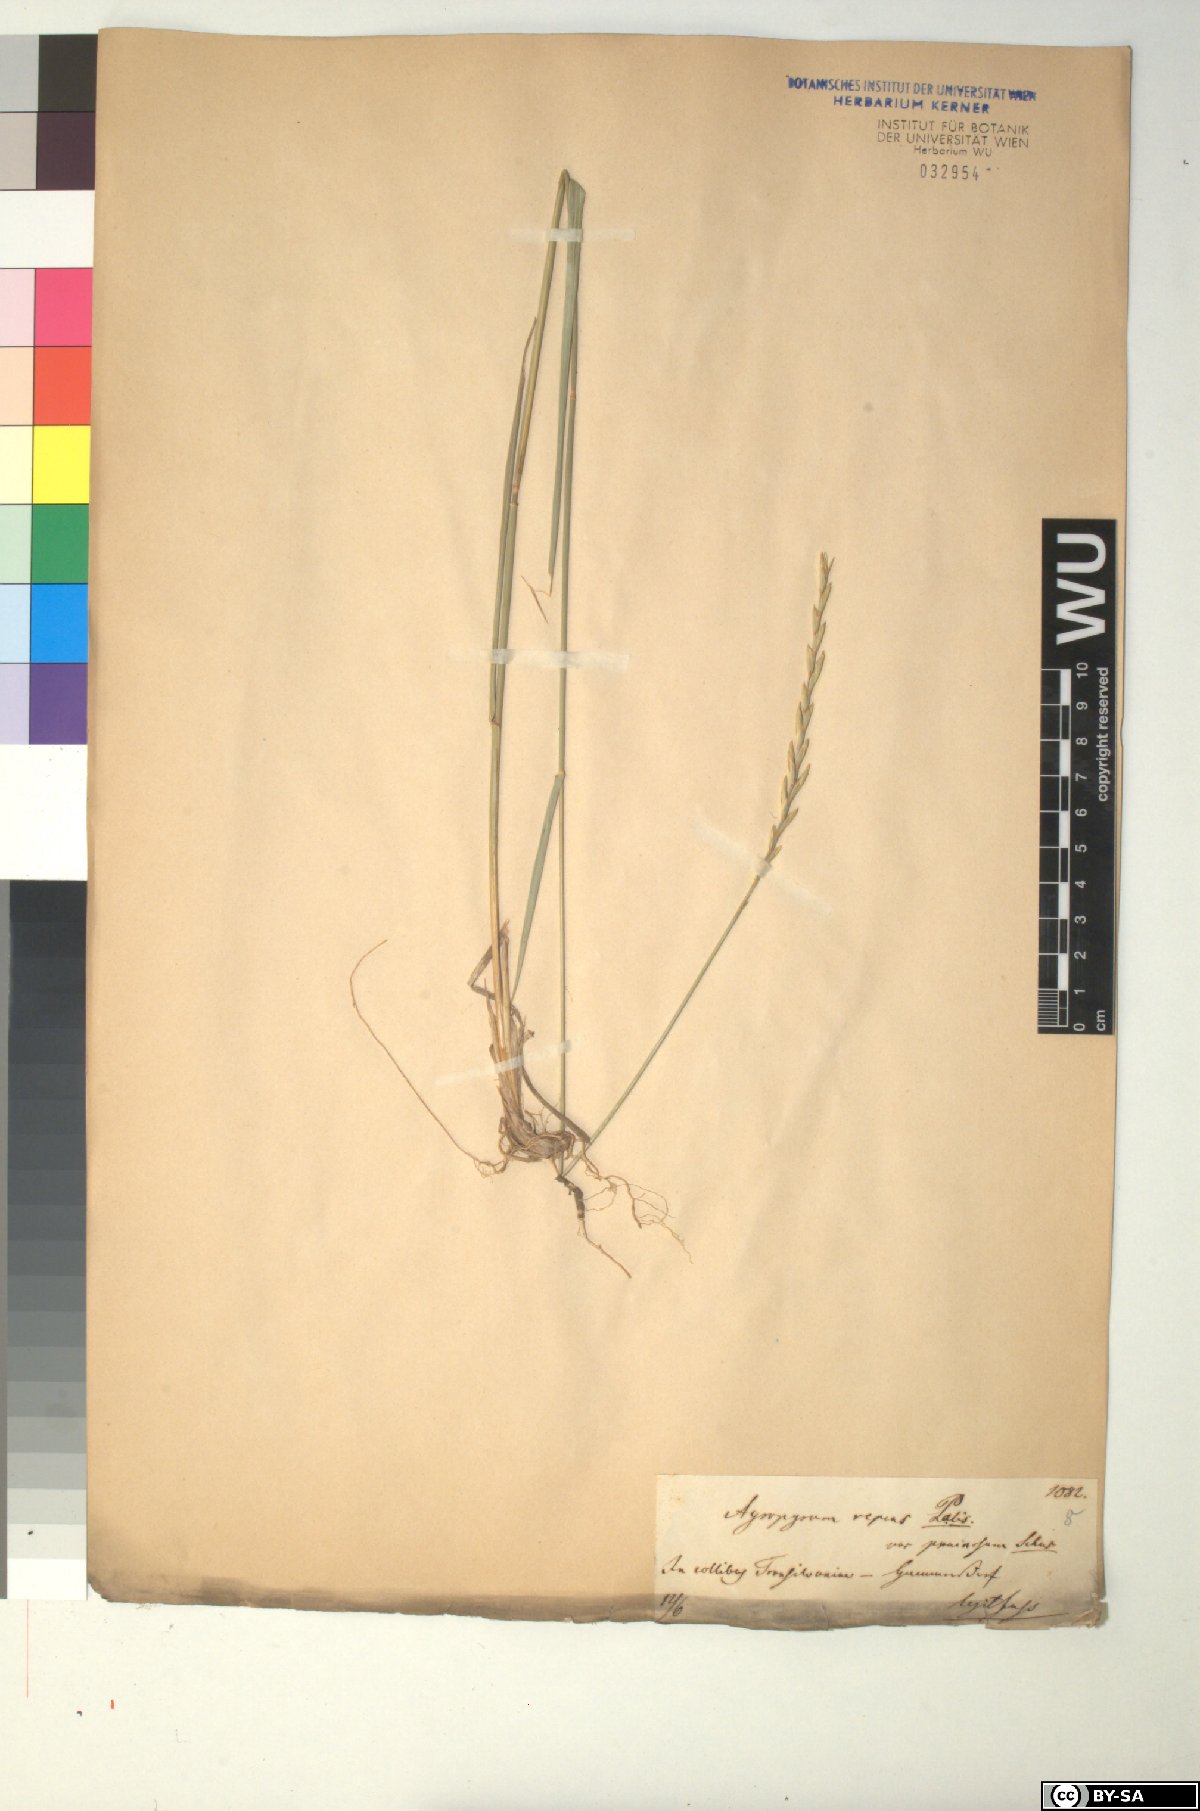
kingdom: Plantae
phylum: Tracheophyta
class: Liliopsida
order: Poales
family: Poaceae
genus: Elymus
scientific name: Elymus repens
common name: Quackgrass
